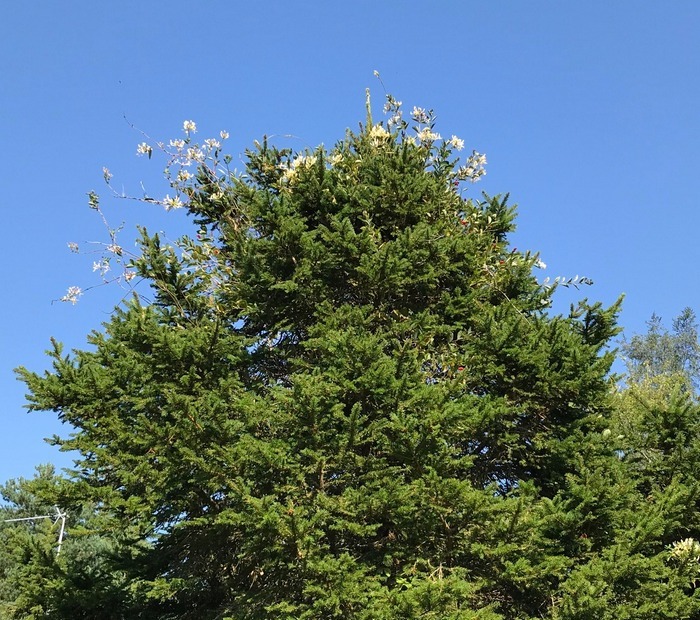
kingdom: Plantae
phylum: Tracheophyta
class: Magnoliopsida
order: Dipsacales
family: Caprifoliaceae
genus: Lonicera
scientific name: Lonicera periclymenum
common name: Almindelig gedeblad
